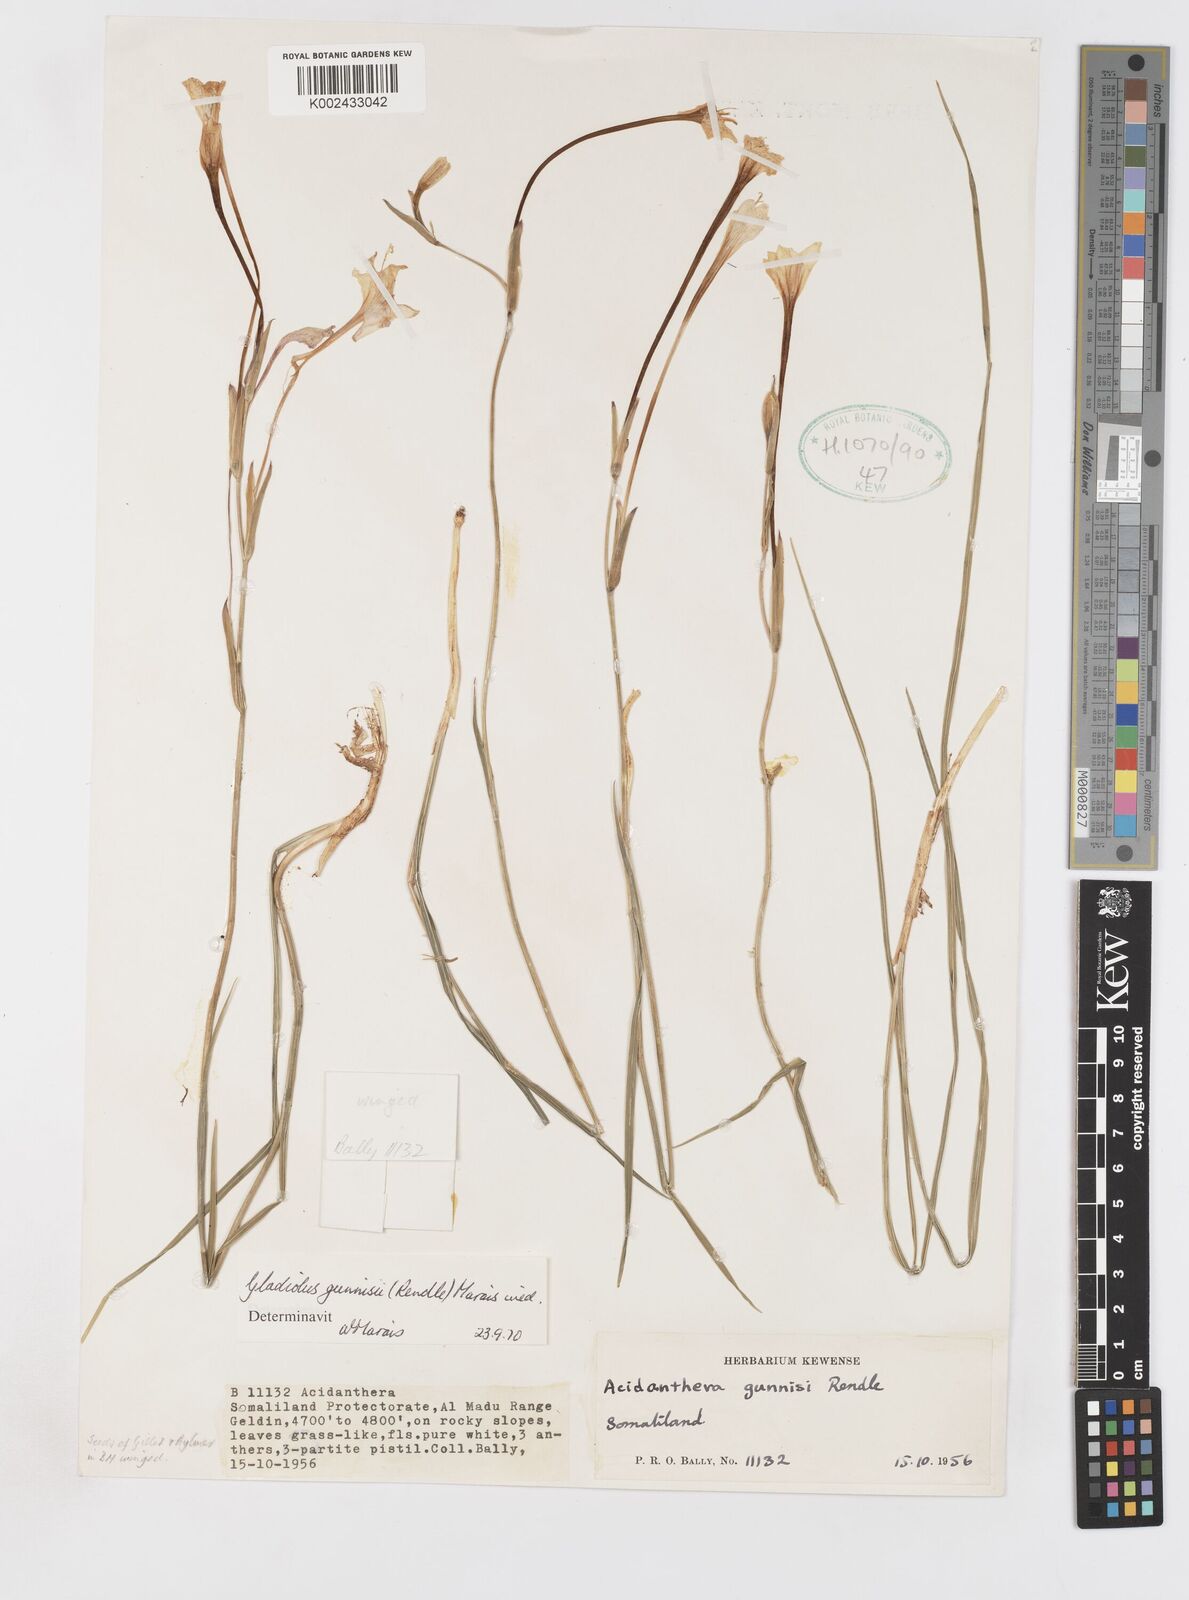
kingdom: Plantae
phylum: Tracheophyta
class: Liliopsida
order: Asparagales
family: Iridaceae
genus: Gladiolus
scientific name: Gladiolus gunnisii
